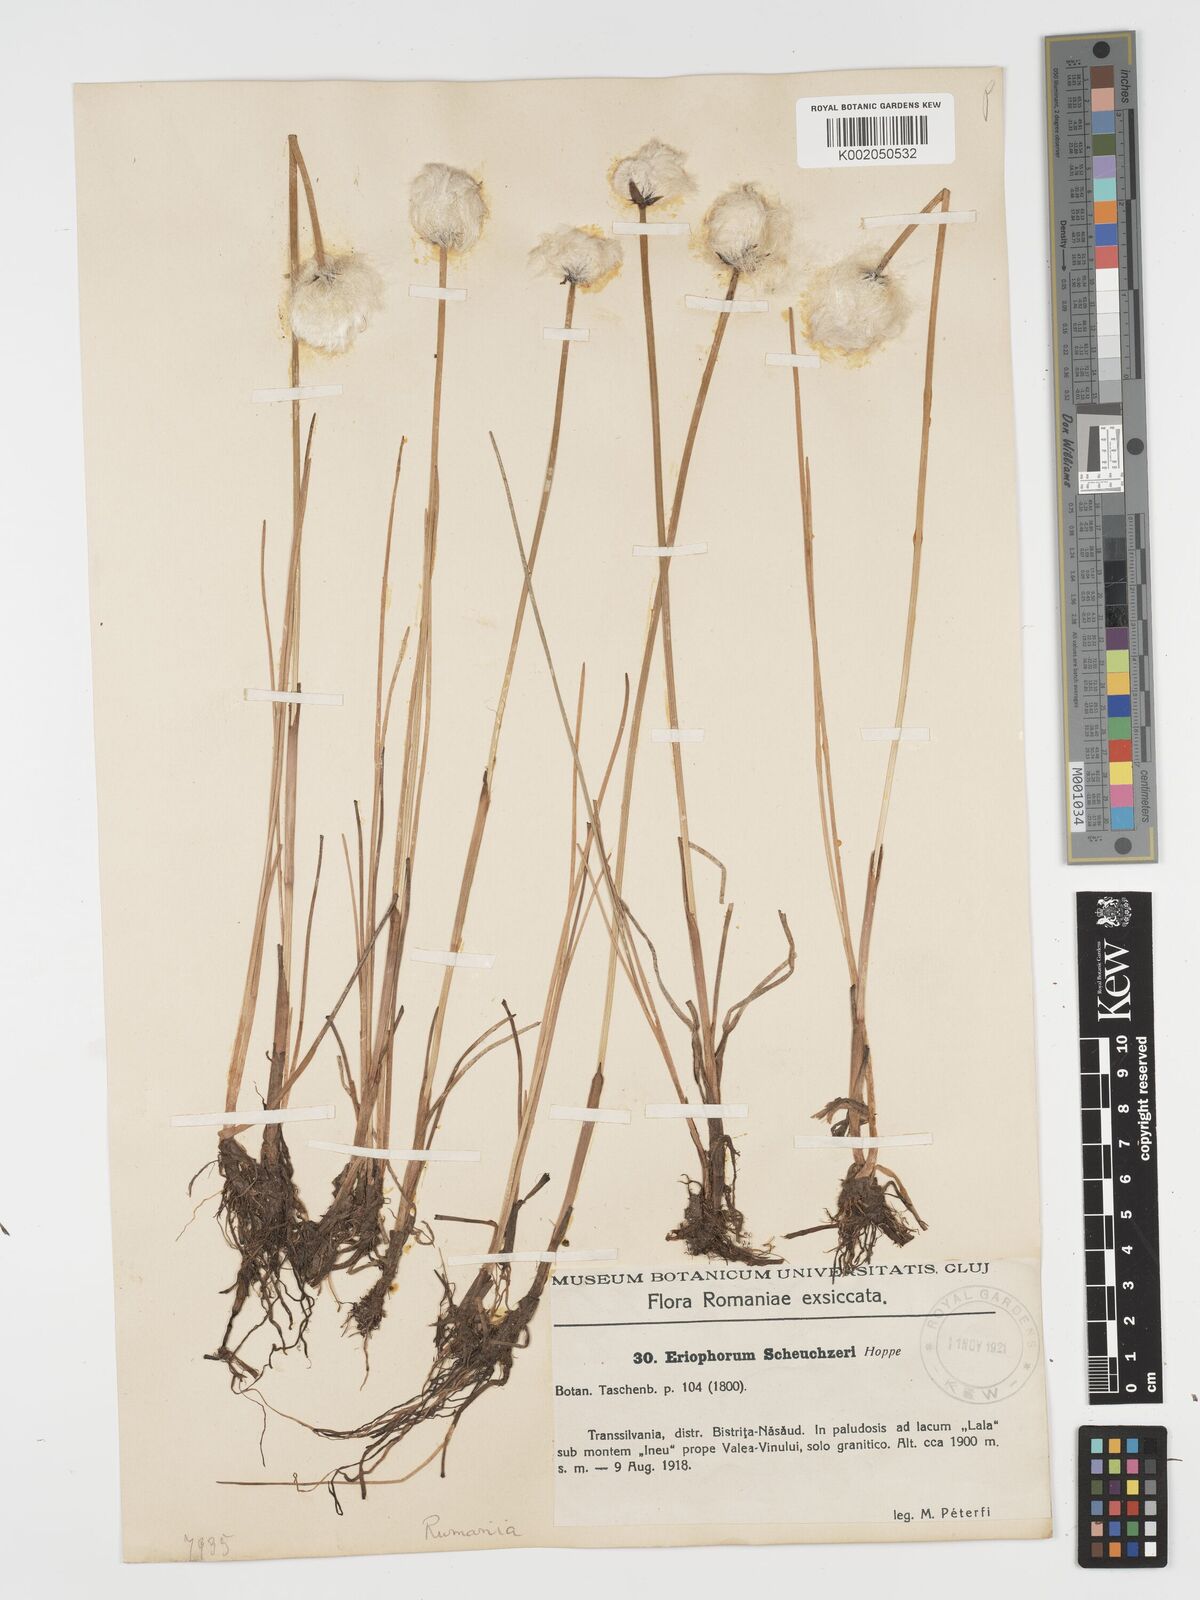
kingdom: Plantae
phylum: Tracheophyta
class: Liliopsida
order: Poales
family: Cyperaceae
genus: Eriophorum
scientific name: Eriophorum scheuchzeri
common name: Scheuchzer's cottongrass
